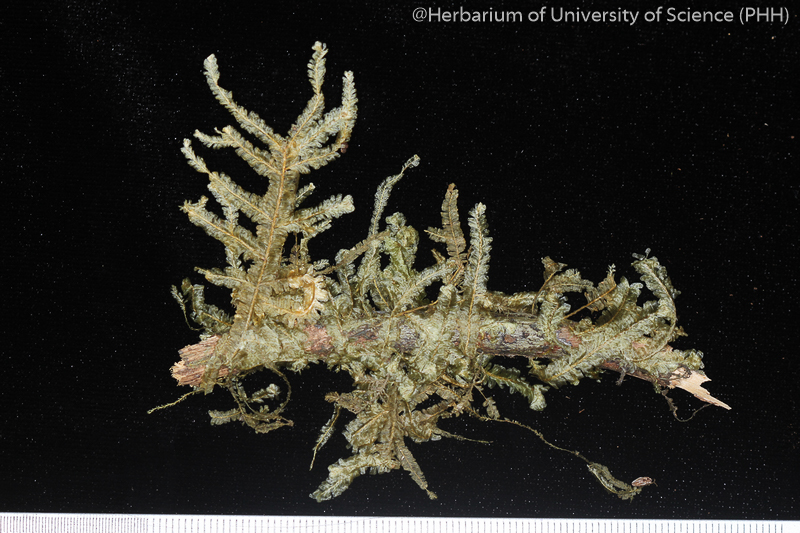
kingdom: Plantae
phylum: Bryophyta
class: Bryopsida
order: Hypnales
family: Neckeraceae
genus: Planicladium
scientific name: Planicladium semperianum
